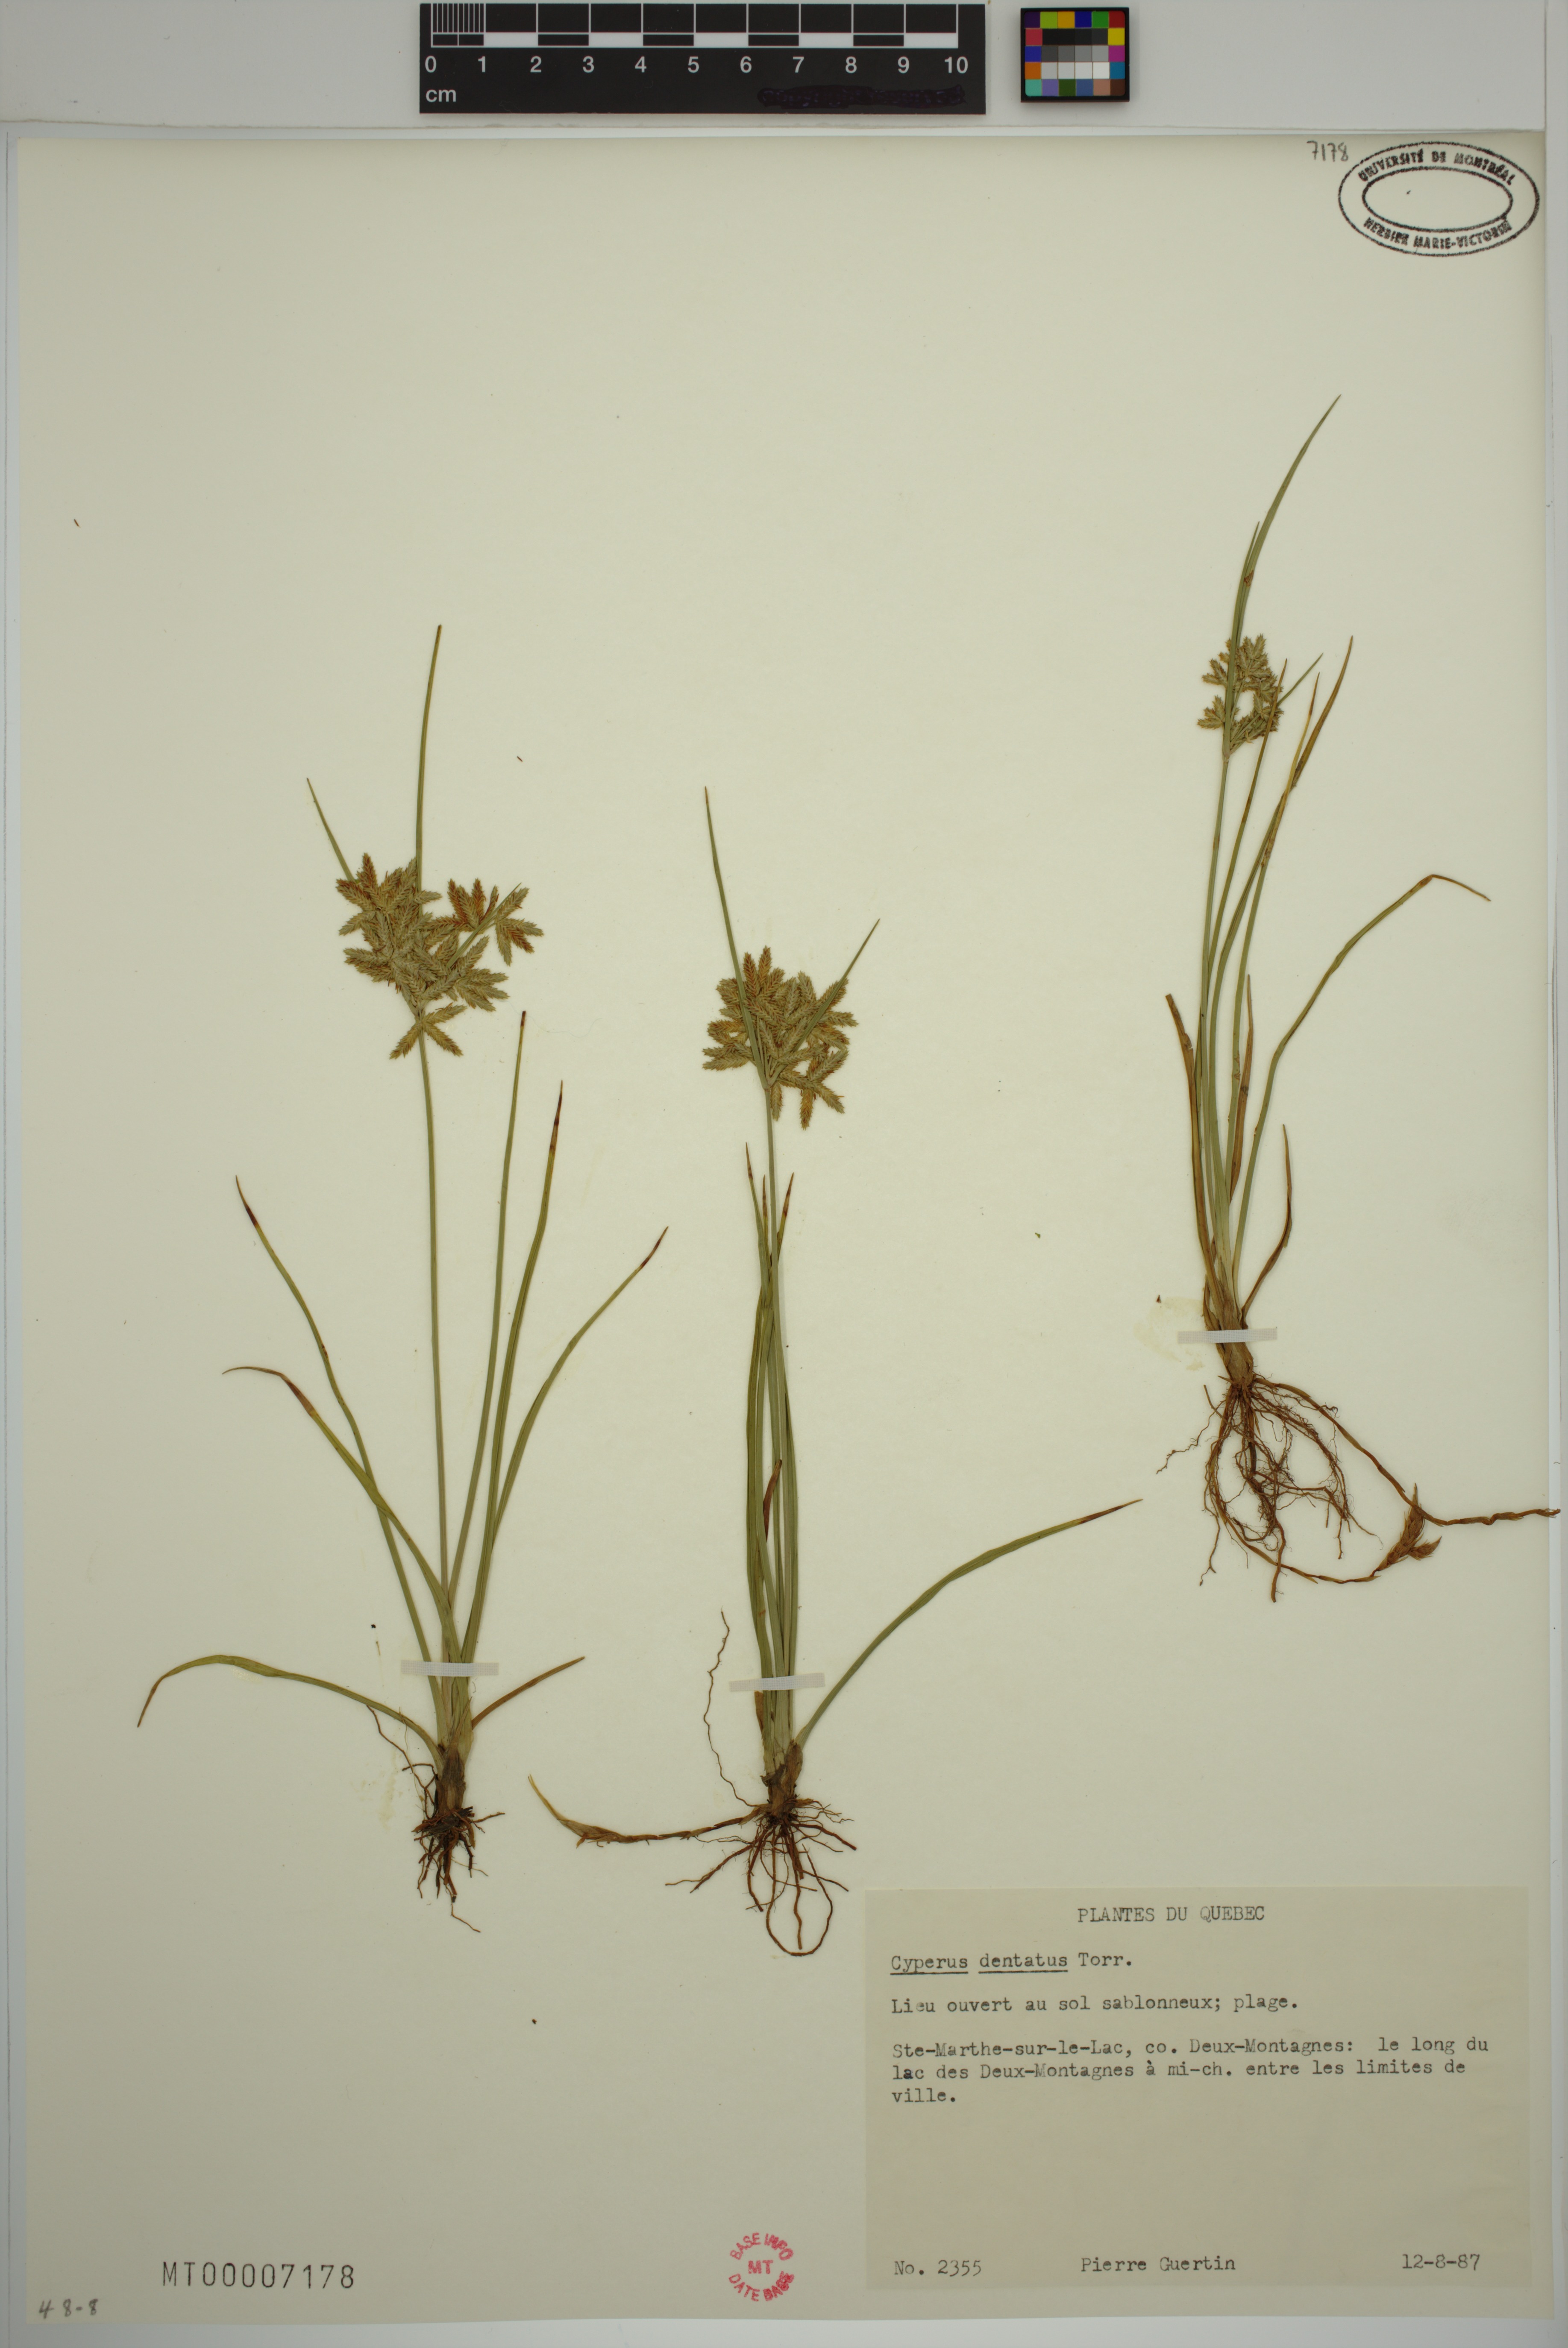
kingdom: Plantae
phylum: Tracheophyta
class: Liliopsida
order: Poales
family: Cyperaceae
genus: Cyperus
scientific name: Cyperus dentatus
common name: Dentate umbrella sedge
